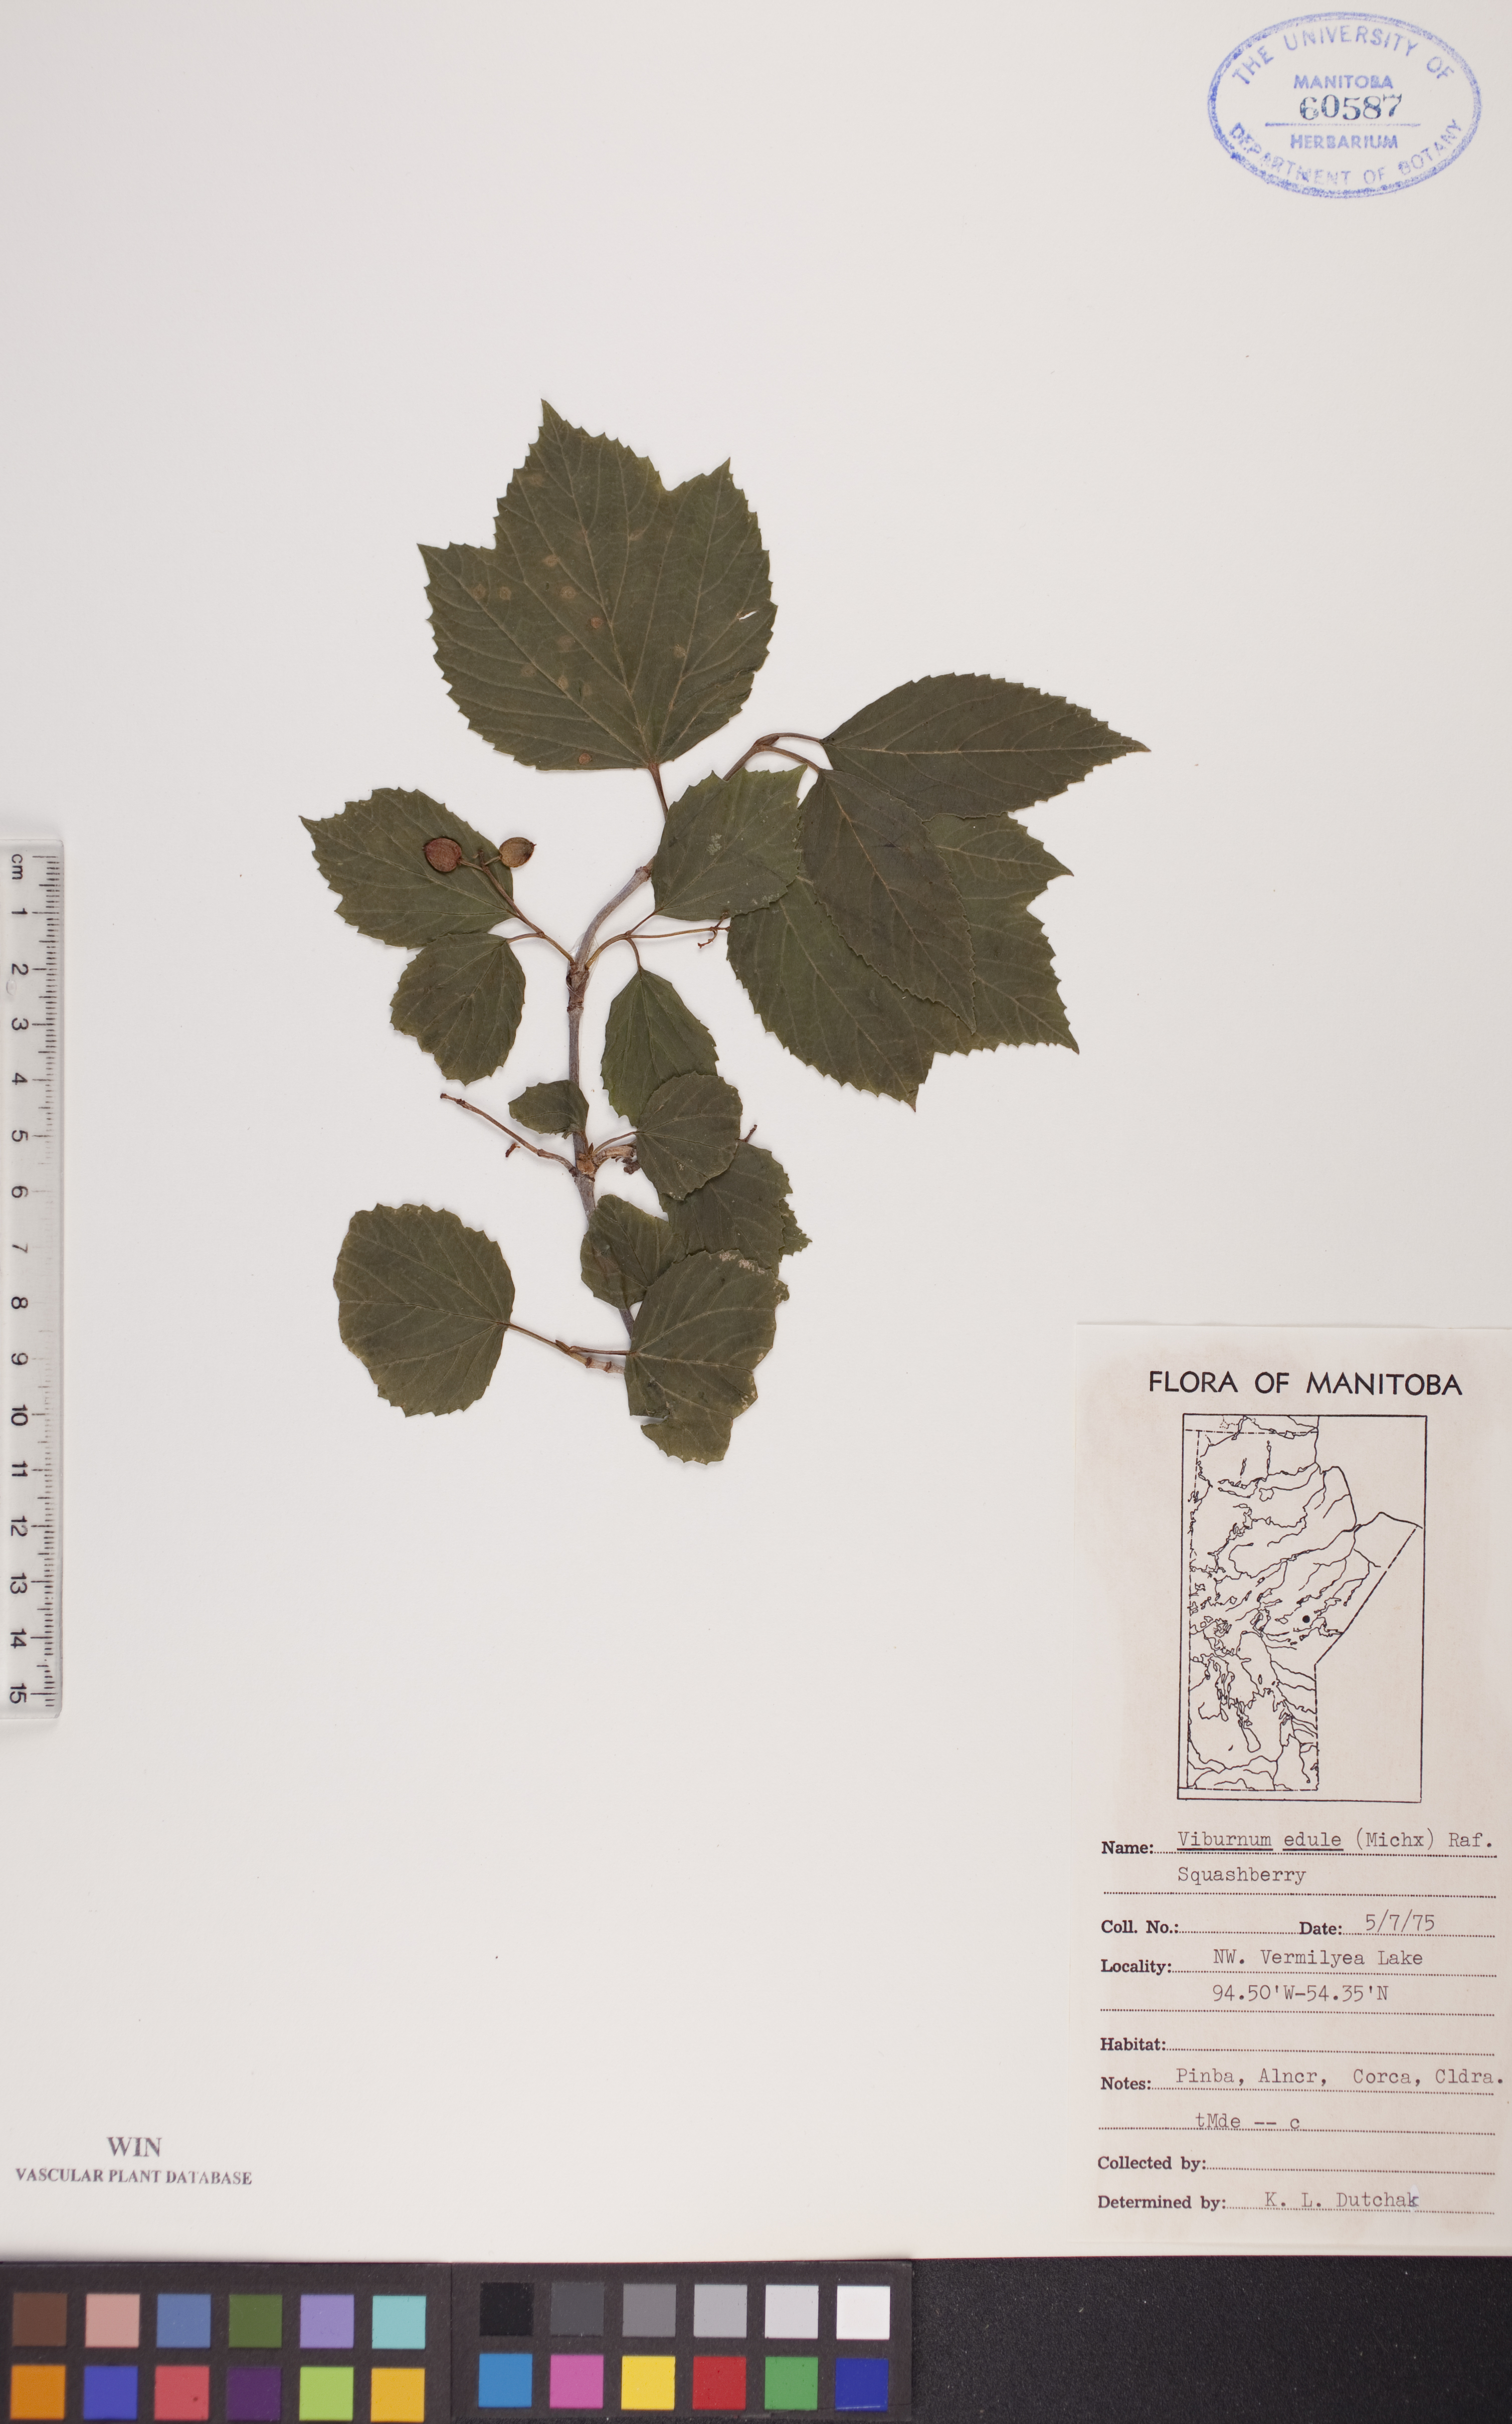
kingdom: Plantae
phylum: Tracheophyta
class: Magnoliopsida
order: Dipsacales
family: Viburnaceae
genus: Viburnum
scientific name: Viburnum edule
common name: Mooseberry
